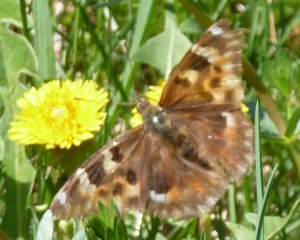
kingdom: Animalia
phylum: Arthropoda
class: Insecta
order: Lepidoptera
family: Nymphalidae
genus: Polygonia
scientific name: Polygonia vaualbum
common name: Compton Tortoiseshell
